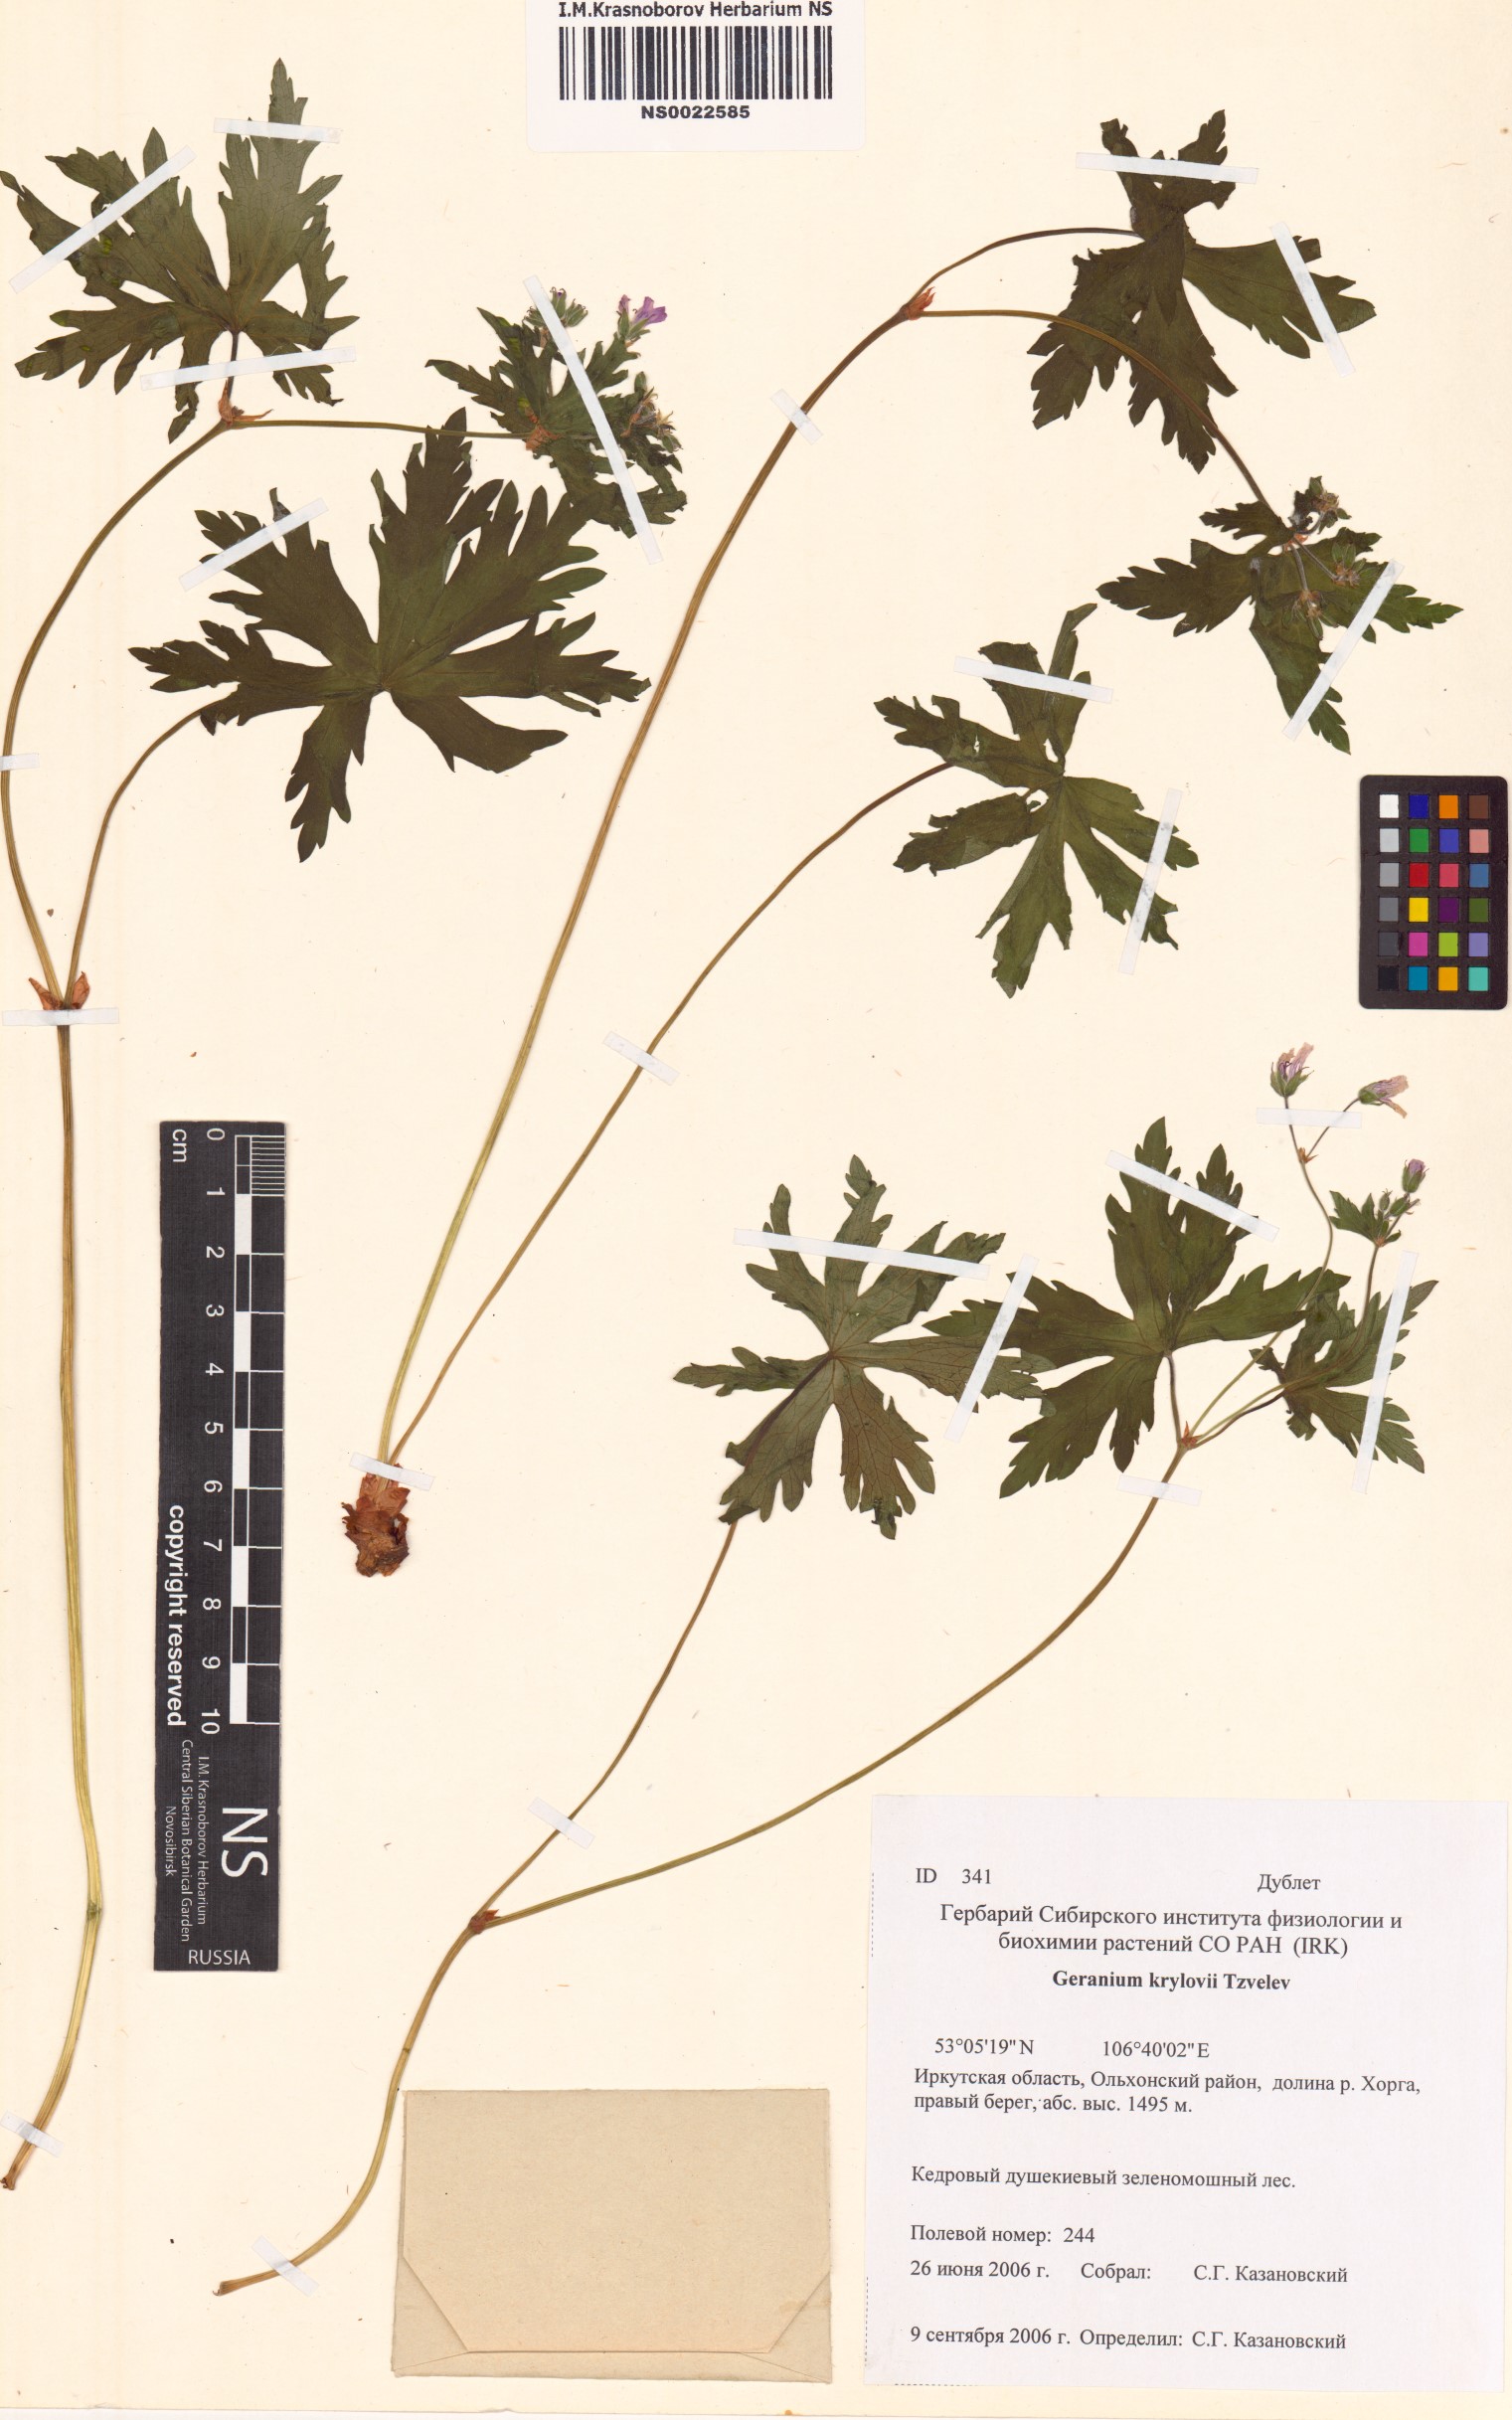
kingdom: Plantae
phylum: Tracheophyta
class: Magnoliopsida
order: Geraniales
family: Geraniaceae
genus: Geranium
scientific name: Geranium sylvaticum
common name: Wood crane's-bill
